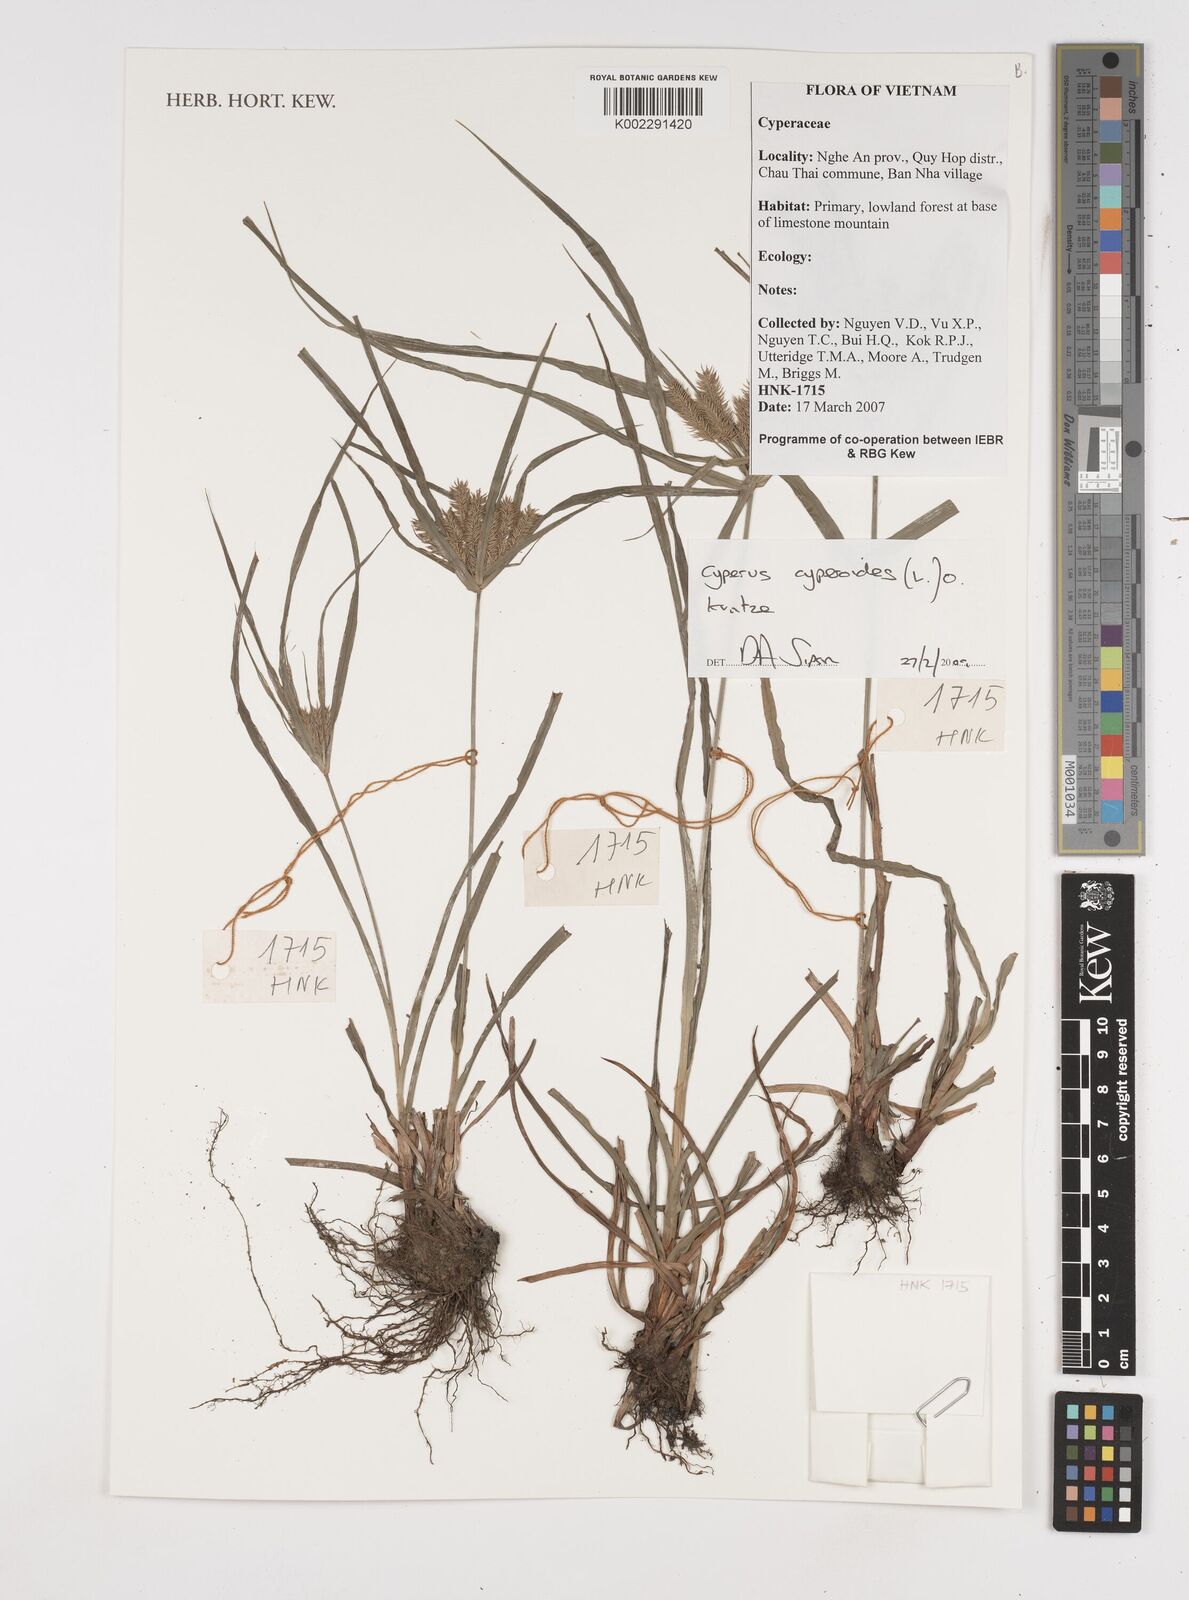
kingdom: Plantae
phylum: Tracheophyta
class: Liliopsida
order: Poales
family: Cyperaceae
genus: Cyperus
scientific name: Cyperus cyperoides
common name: Pacific island flat sedge
